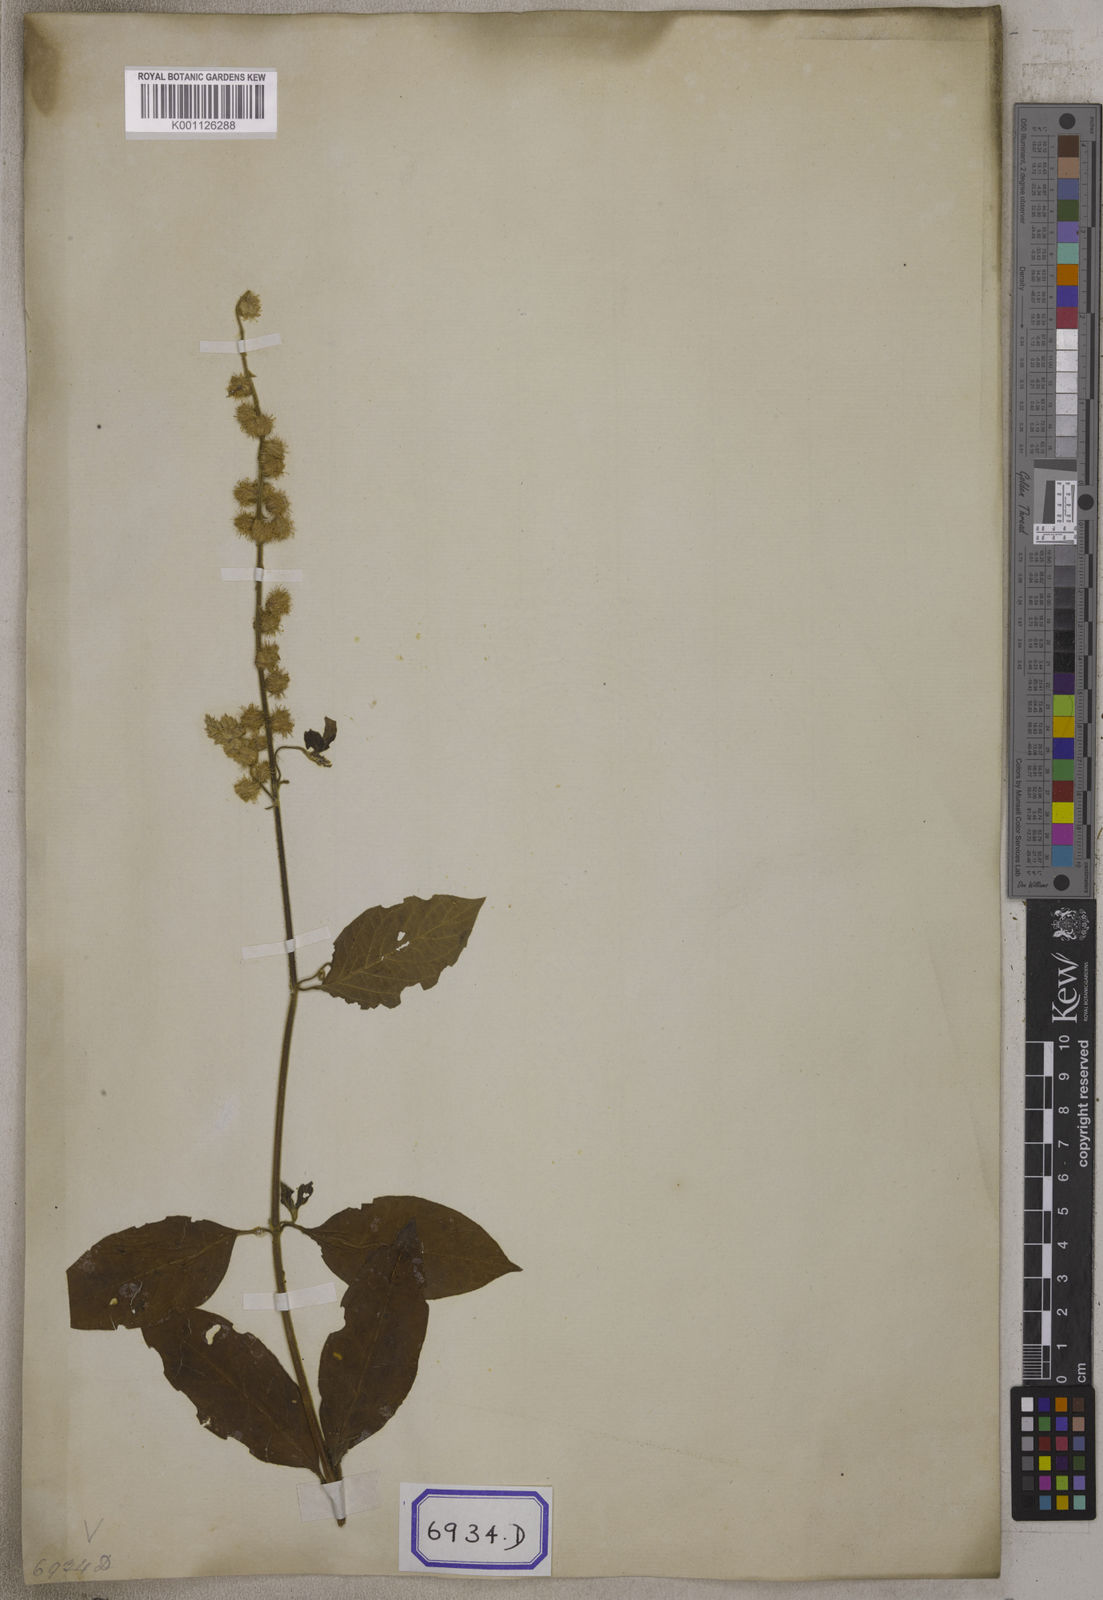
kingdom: Plantae
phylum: Tracheophyta
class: Magnoliopsida
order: Caryophyllales
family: Amaranthaceae
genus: Pupalia
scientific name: Pupalia lappacea
